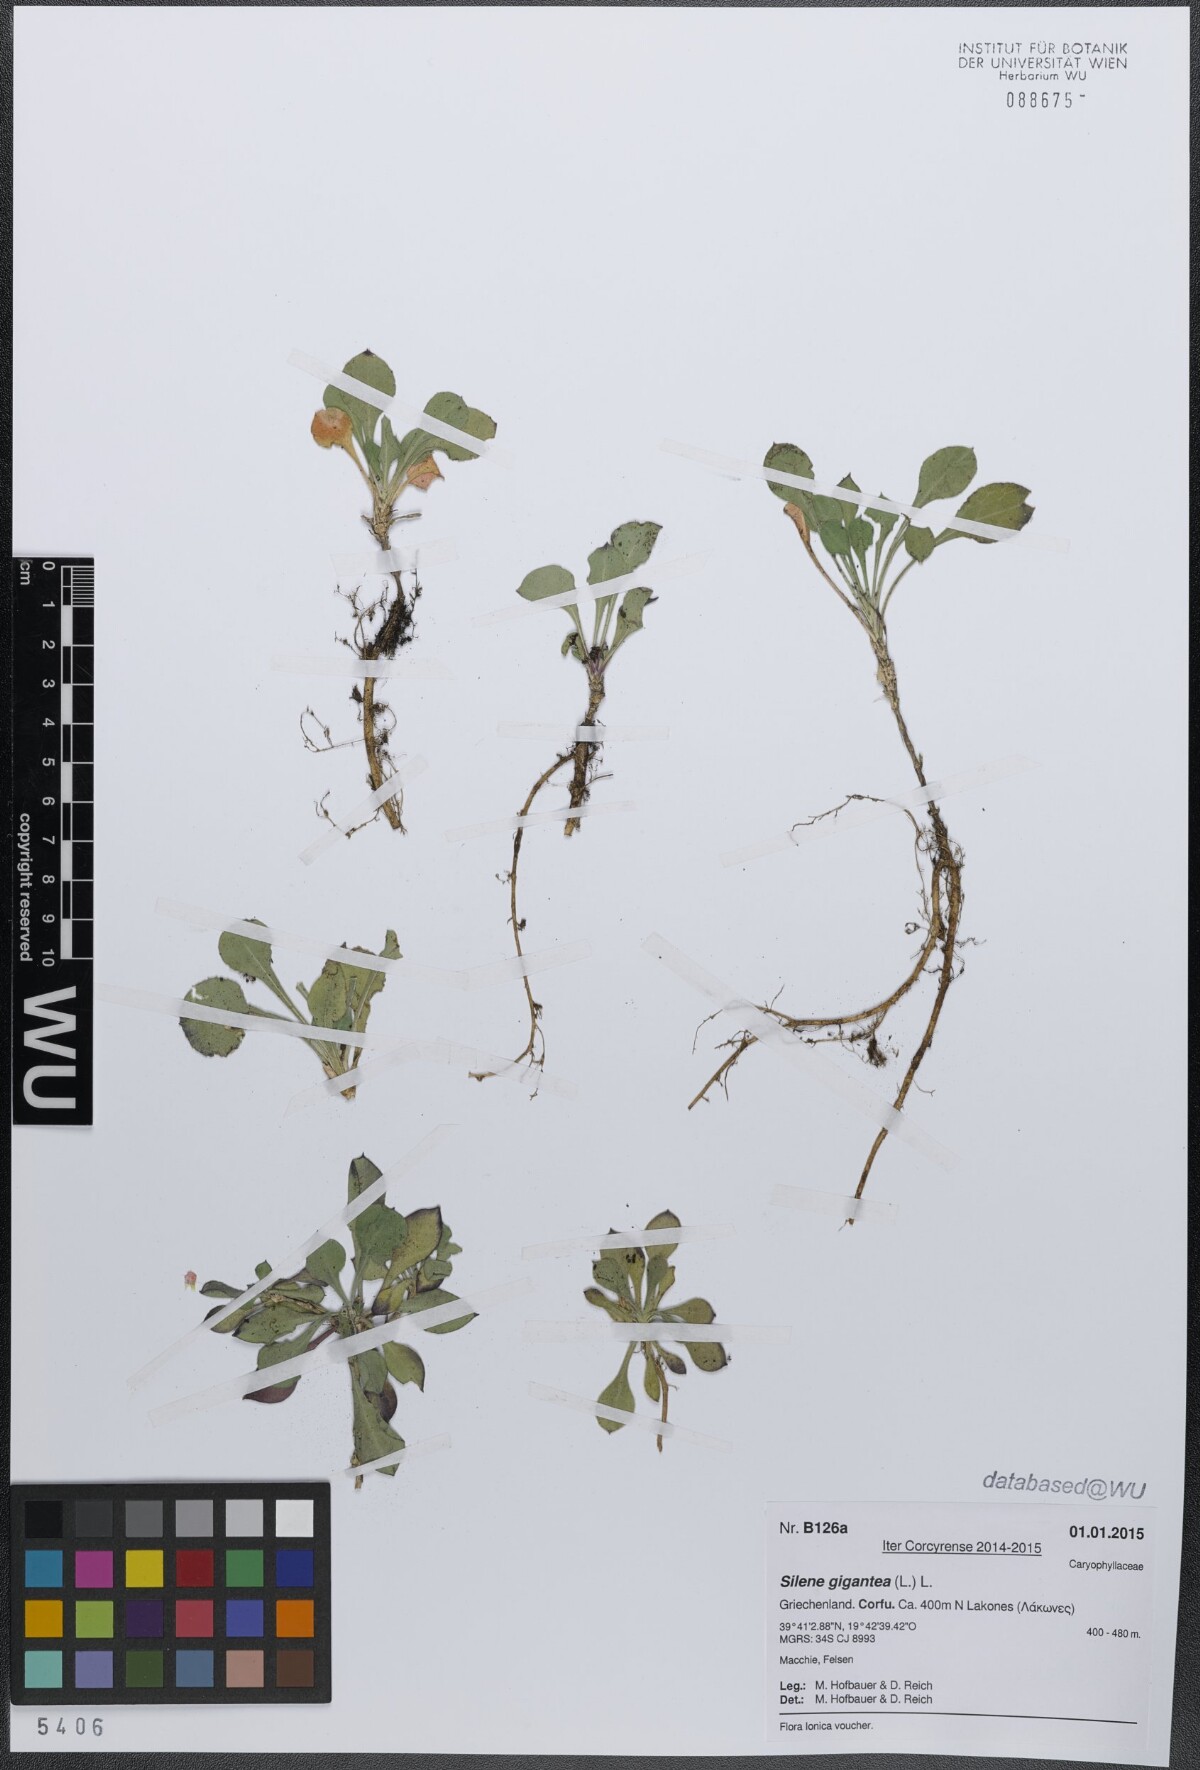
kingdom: Plantae
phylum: Tracheophyta
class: Magnoliopsida
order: Caryophyllales
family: Caryophyllaceae
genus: Silene
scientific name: Silene gigantea
